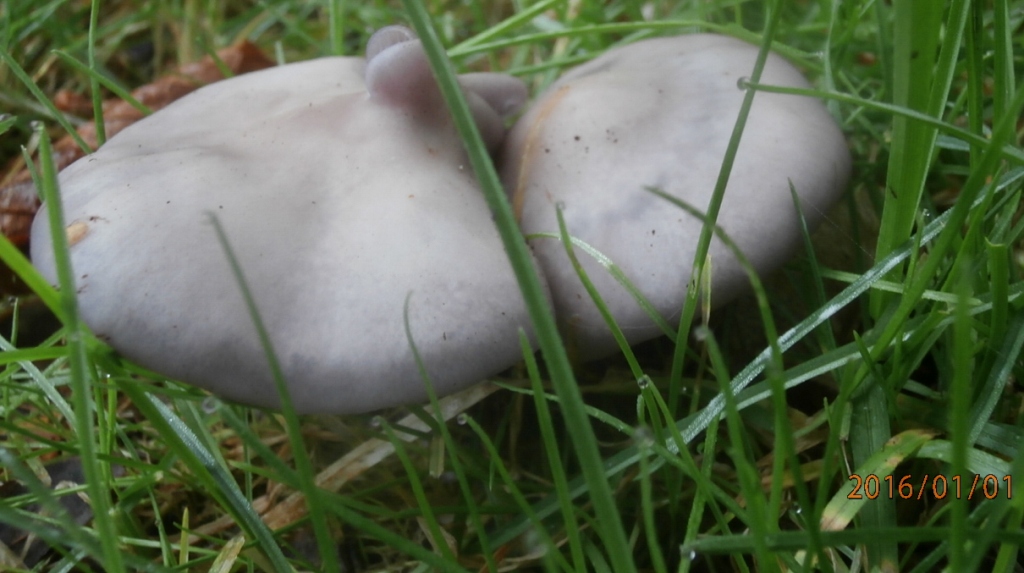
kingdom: Fungi
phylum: Basidiomycota
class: Agaricomycetes
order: Agaricales
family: Tricholomataceae
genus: Lepista
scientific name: Lepista nuda
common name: violet hekseringshat
